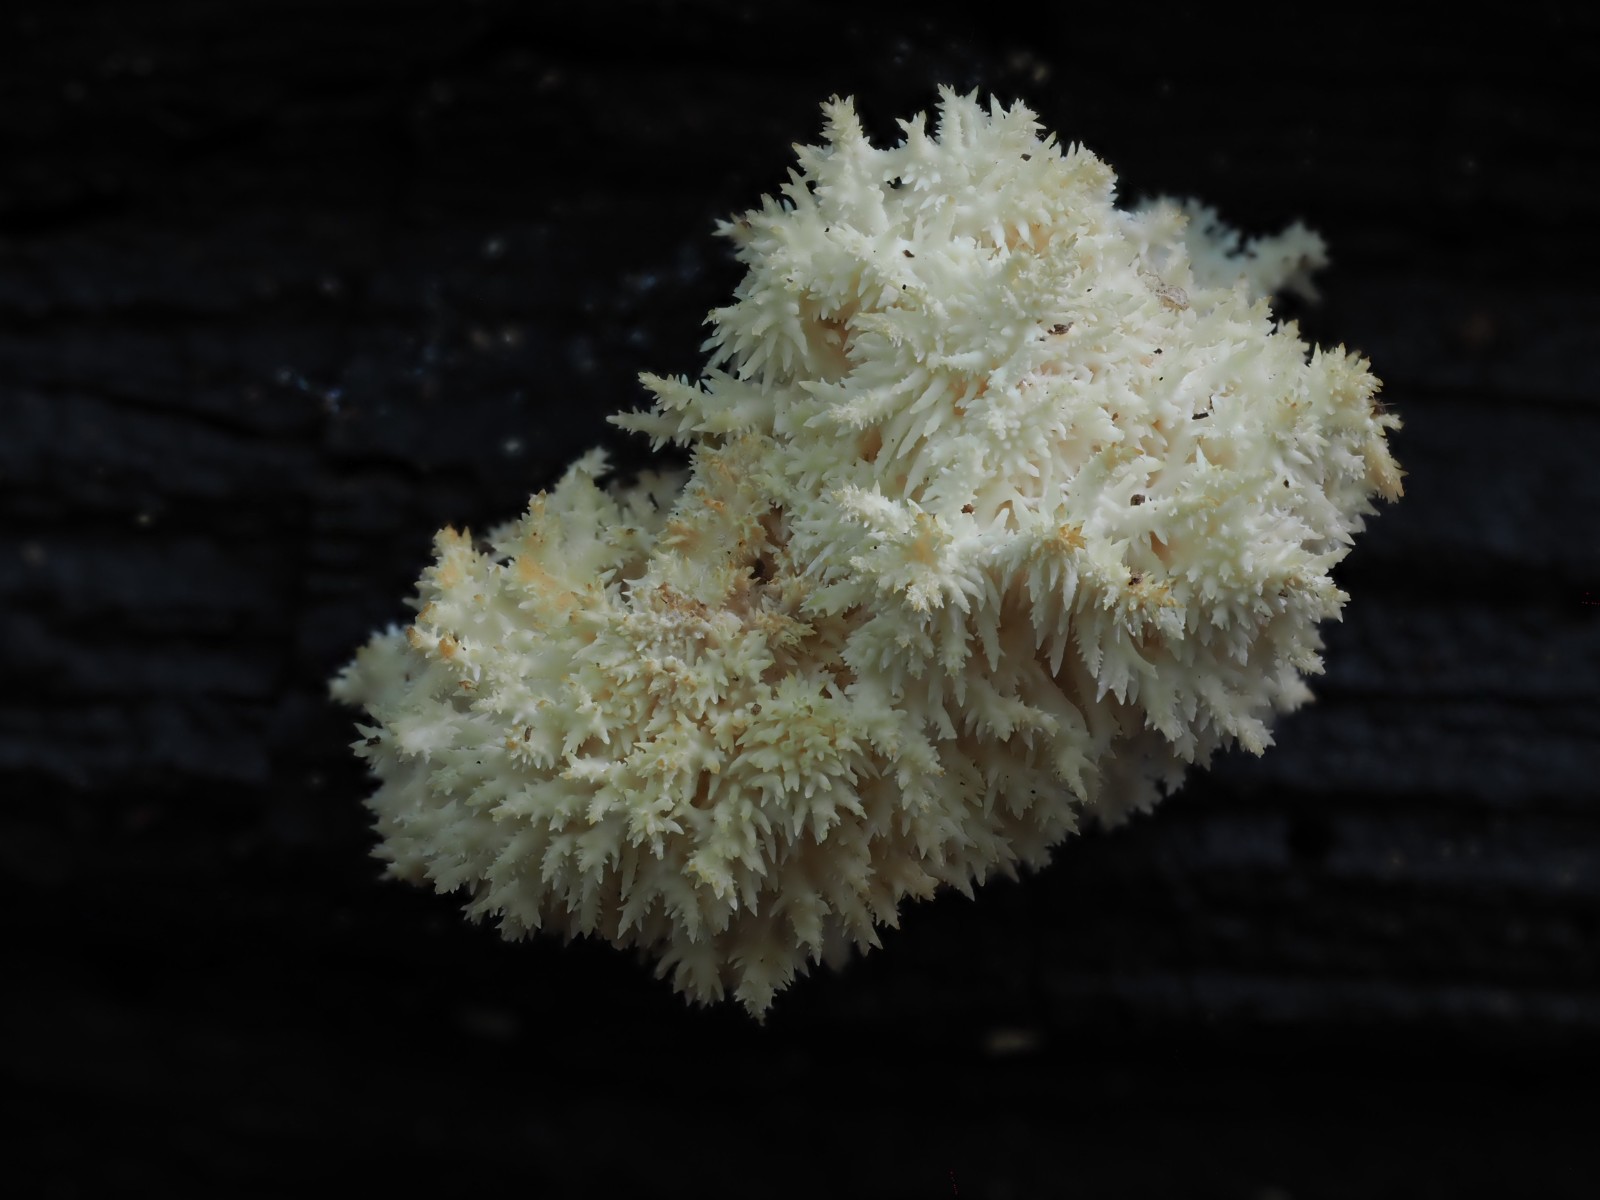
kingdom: Fungi
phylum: Basidiomycota
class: Agaricomycetes
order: Russulales
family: Hericiaceae
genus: Hericium
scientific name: Hericium coralloides
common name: koralpigsvamp
